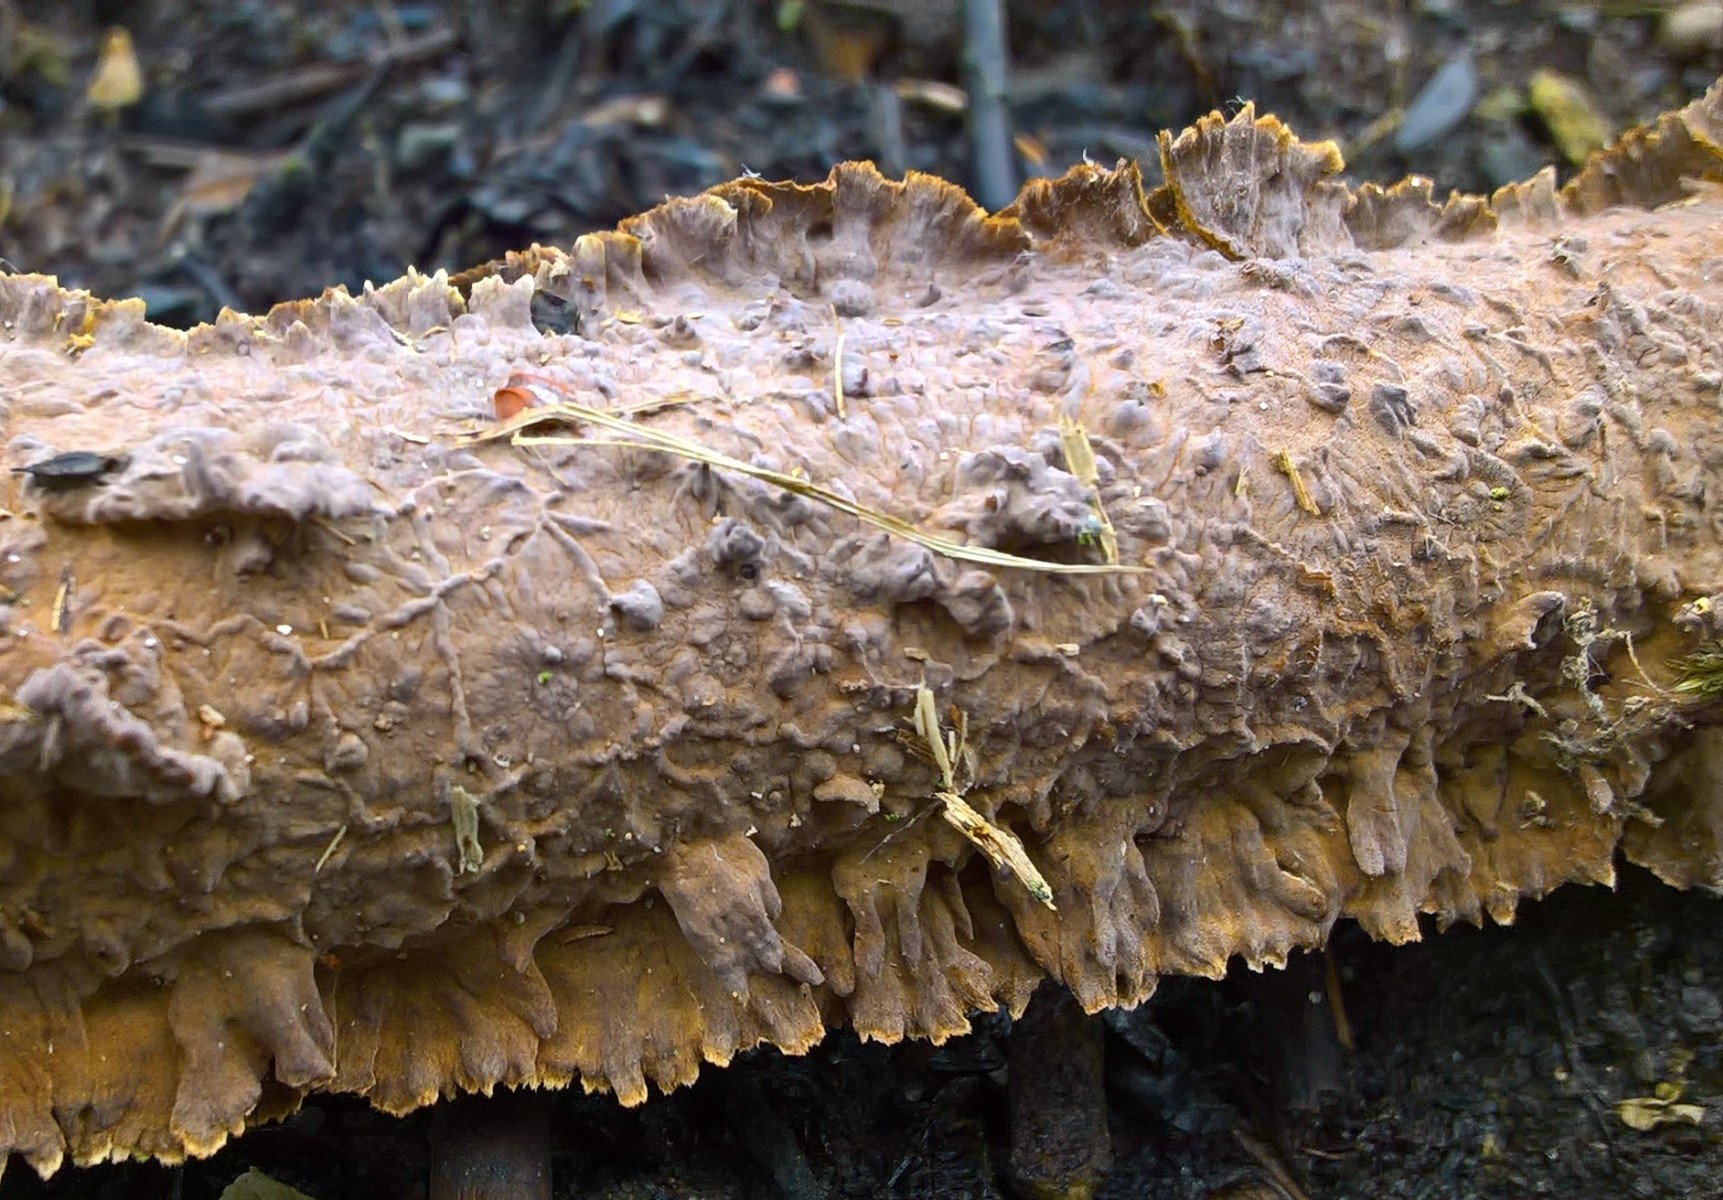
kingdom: Fungi
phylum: Basidiomycota
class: Agaricomycetes
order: Hymenochaetales
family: Hymenochaetaceae
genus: Hydnoporia
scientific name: Hydnoporia tabacina
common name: tobaksbrun ruslædersvamp
